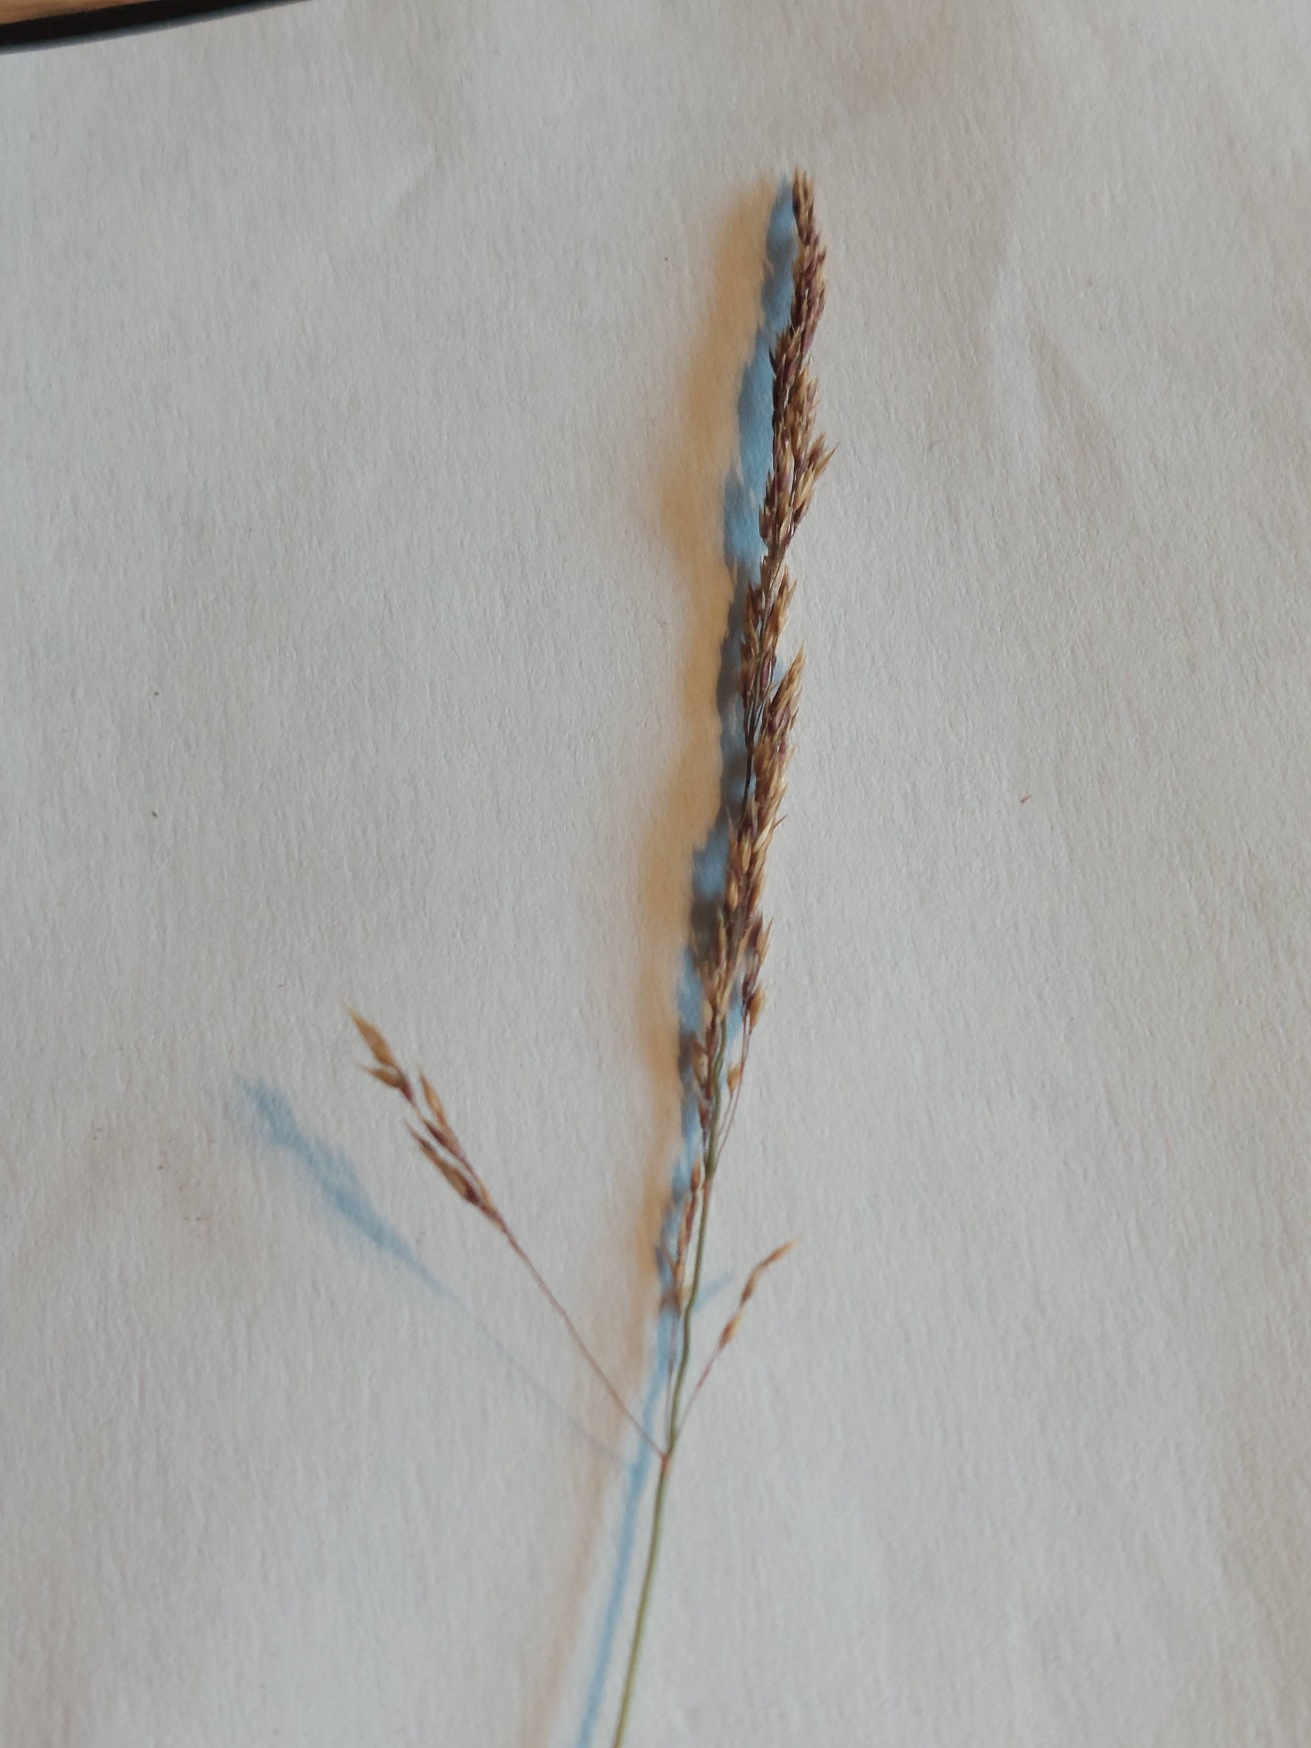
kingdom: Plantae
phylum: Tracheophyta
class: Liliopsida
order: Poales
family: Poaceae
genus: Festuca
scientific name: Festuca rubra
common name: Rød svingel
